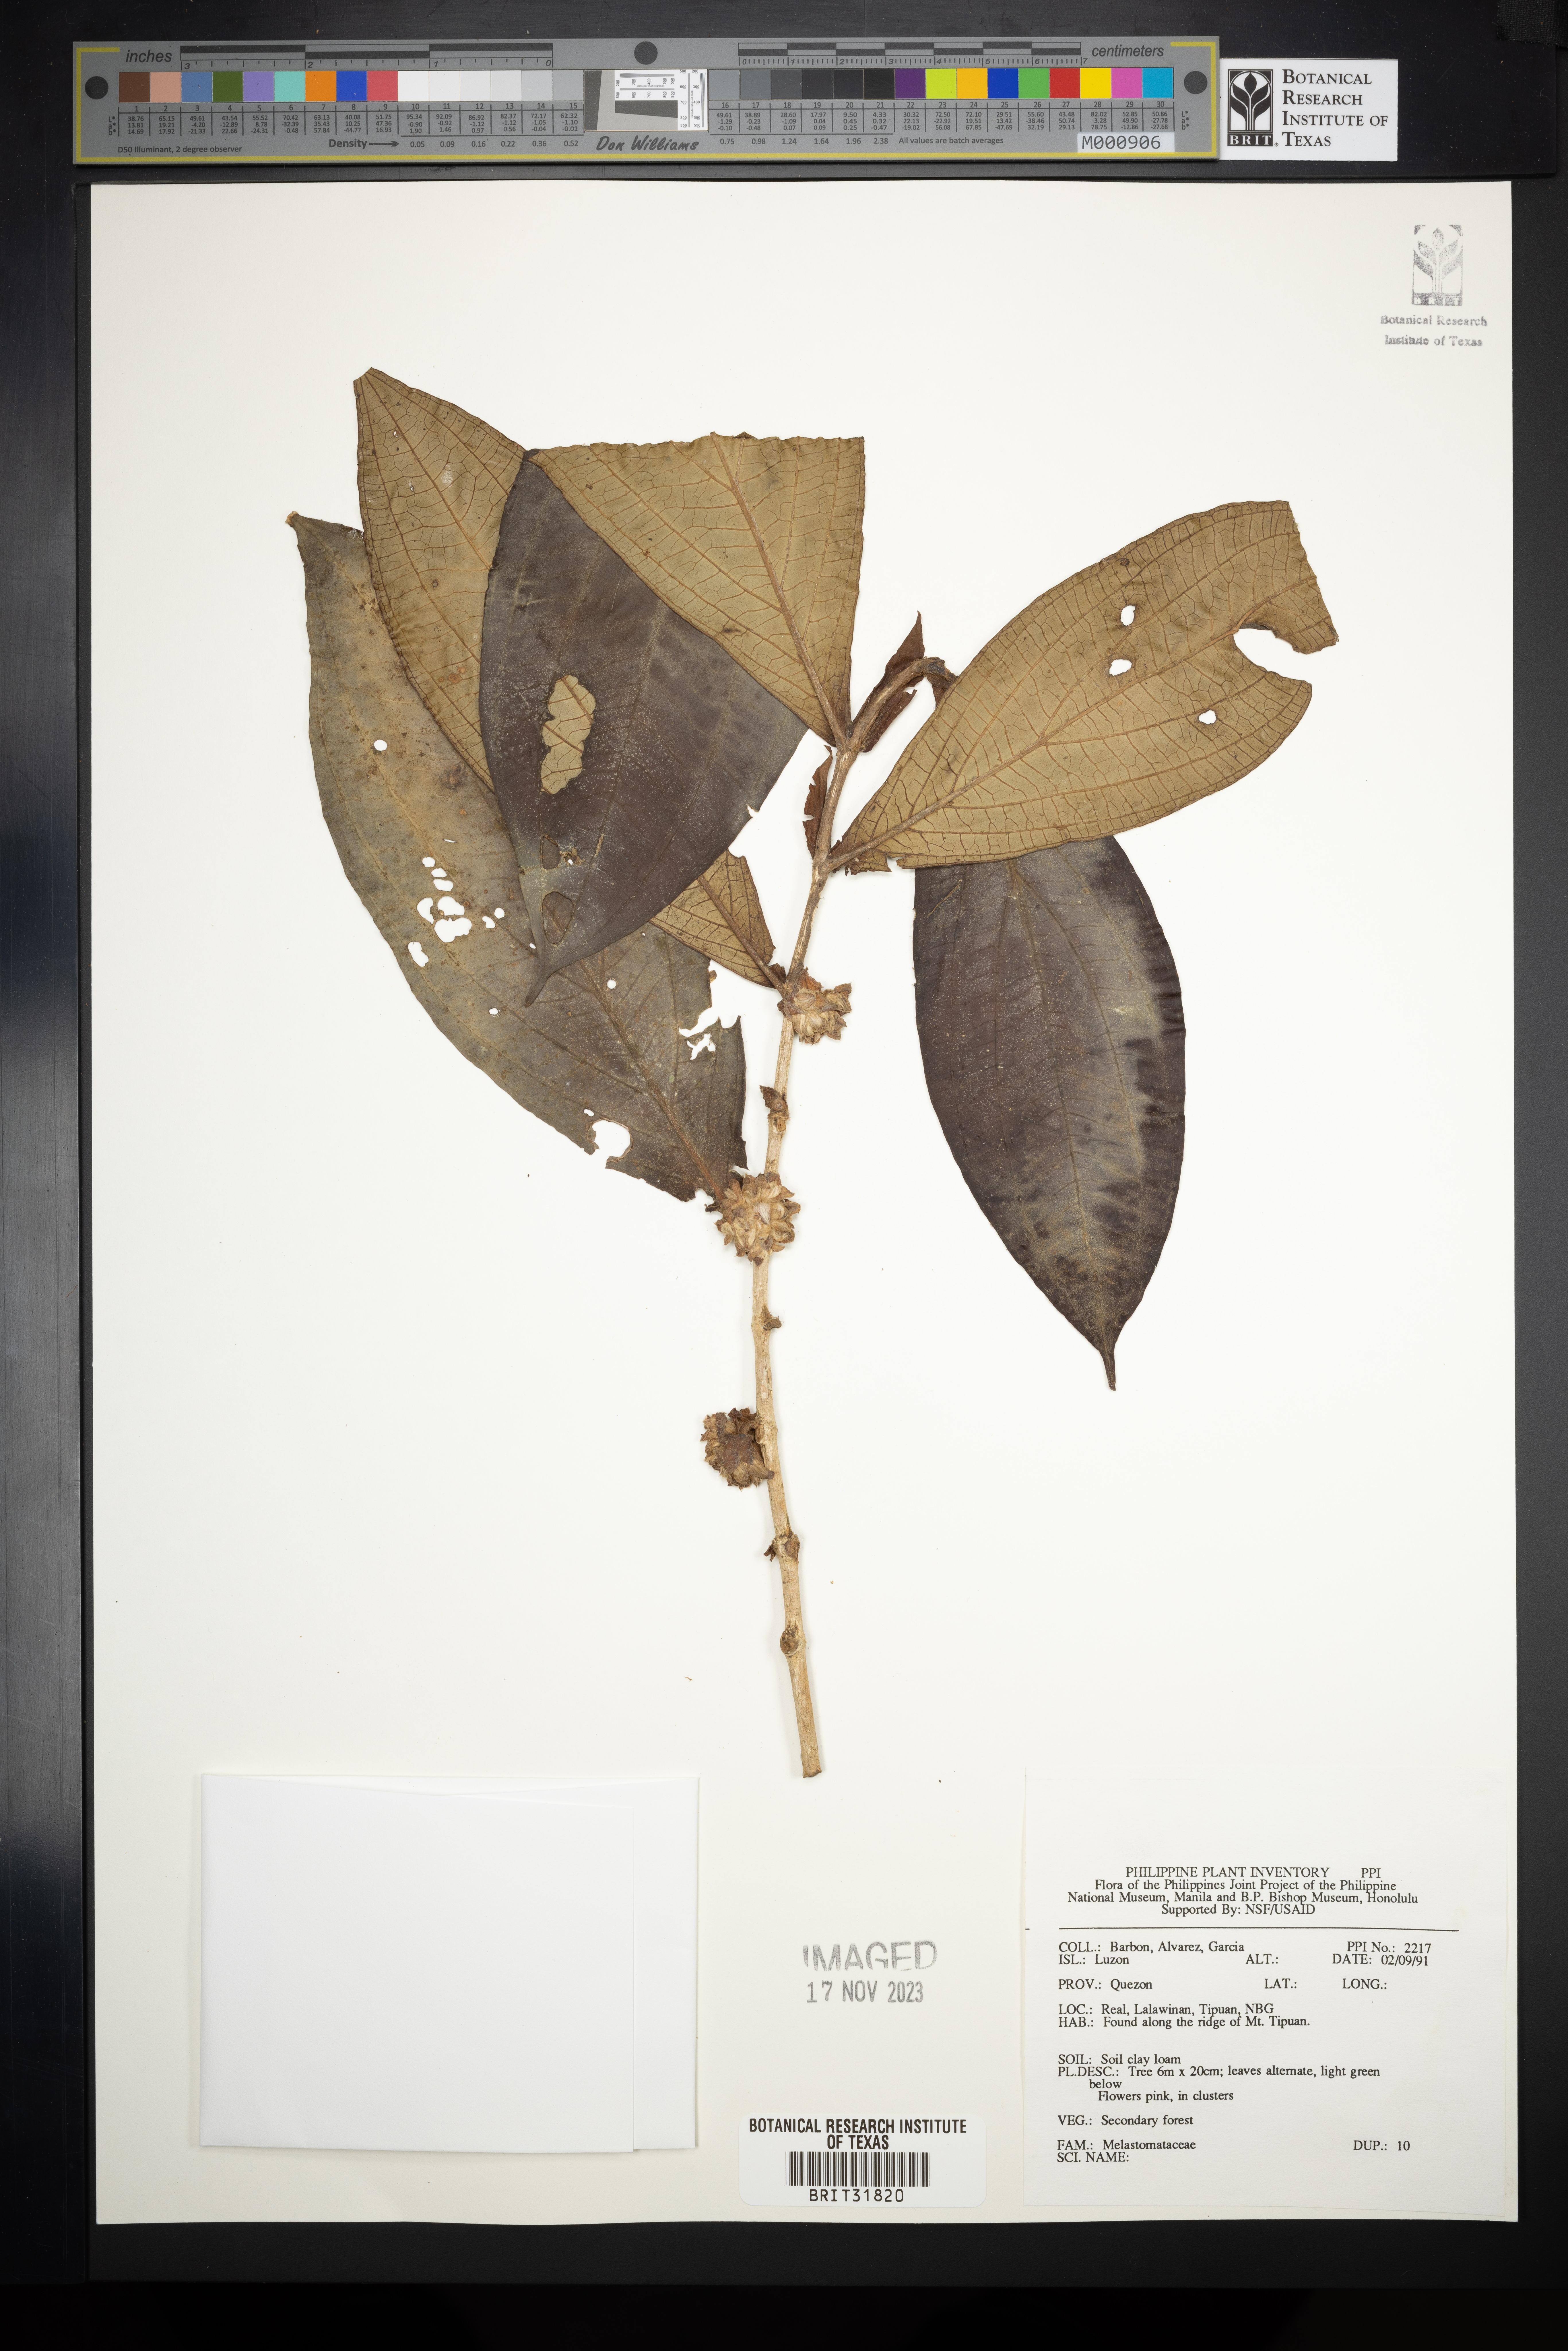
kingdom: Plantae
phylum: Tracheophyta
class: Magnoliopsida
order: Myrtales
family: Melastomataceae
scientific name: Melastomataceae
